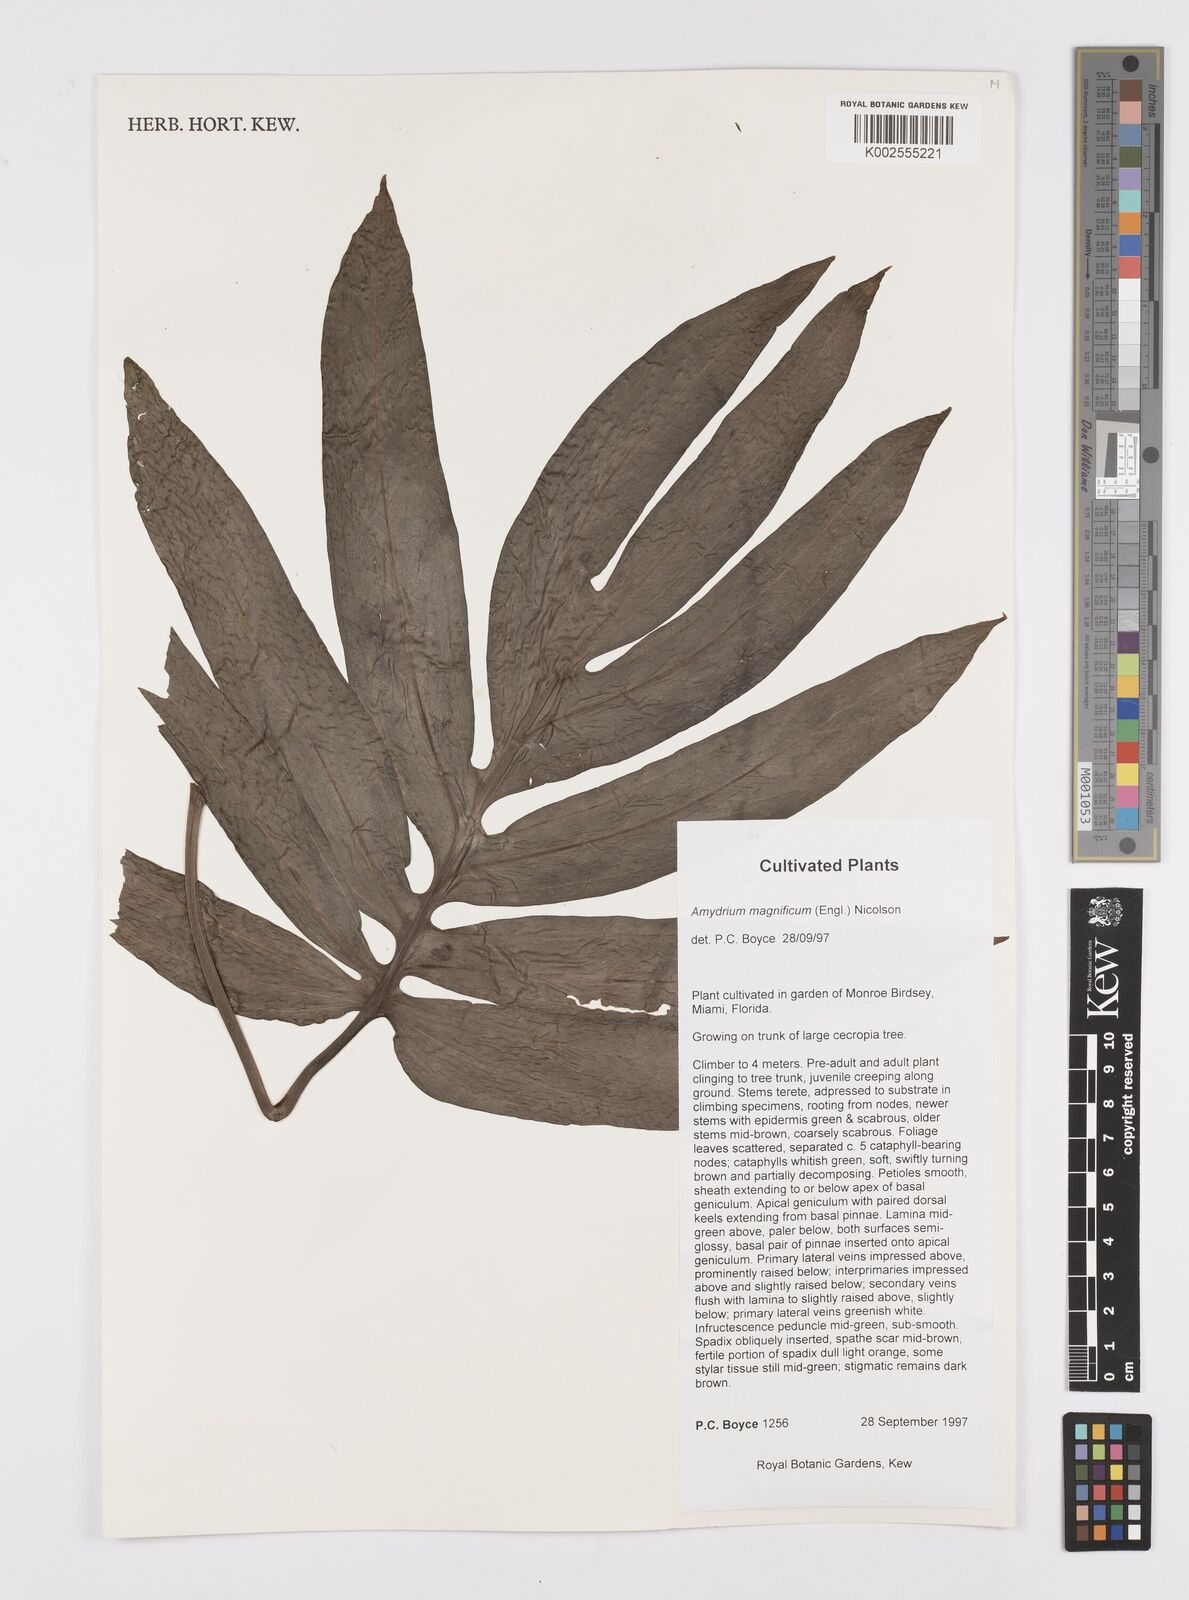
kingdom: Plantae
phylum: Tracheophyta
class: Liliopsida
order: Alismatales
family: Araceae
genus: Amydrium
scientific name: Amydrium zippelianum
